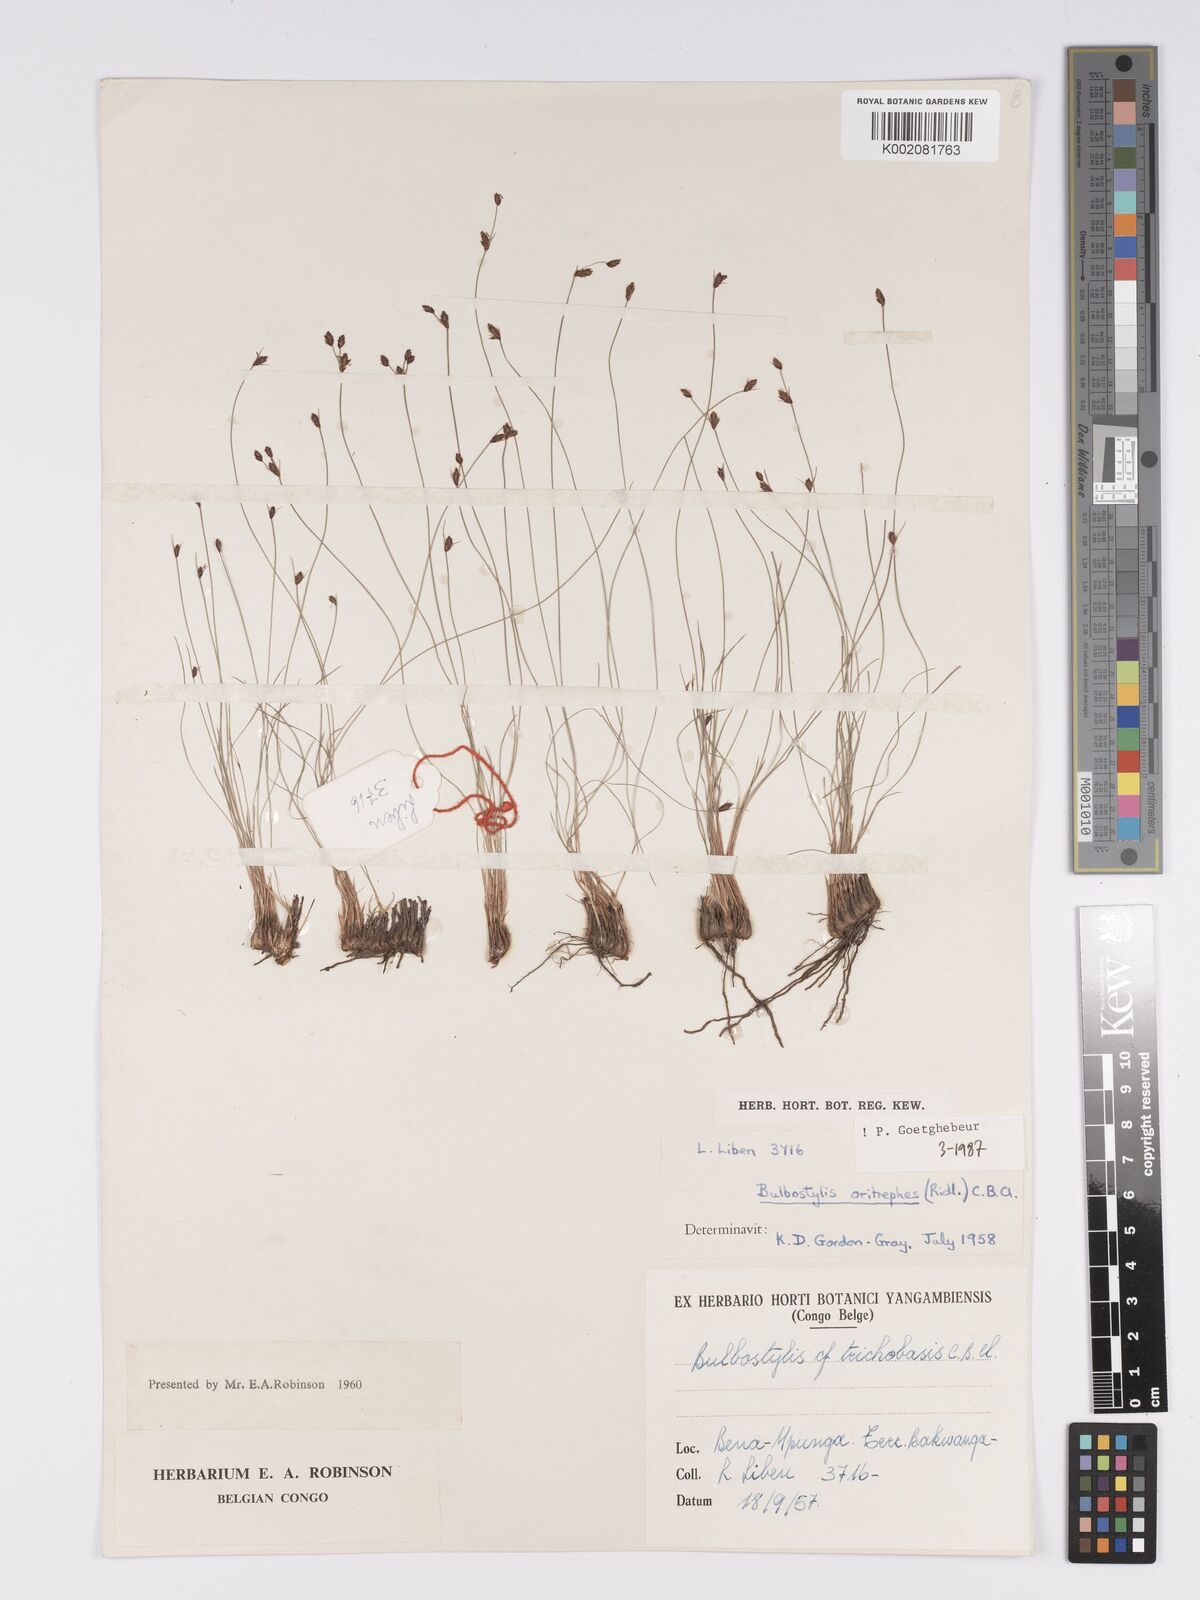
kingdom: Plantae
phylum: Tracheophyta
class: Liliopsida
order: Poales
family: Cyperaceae
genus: Bulbostylis
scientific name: Bulbostylis oritrephes
